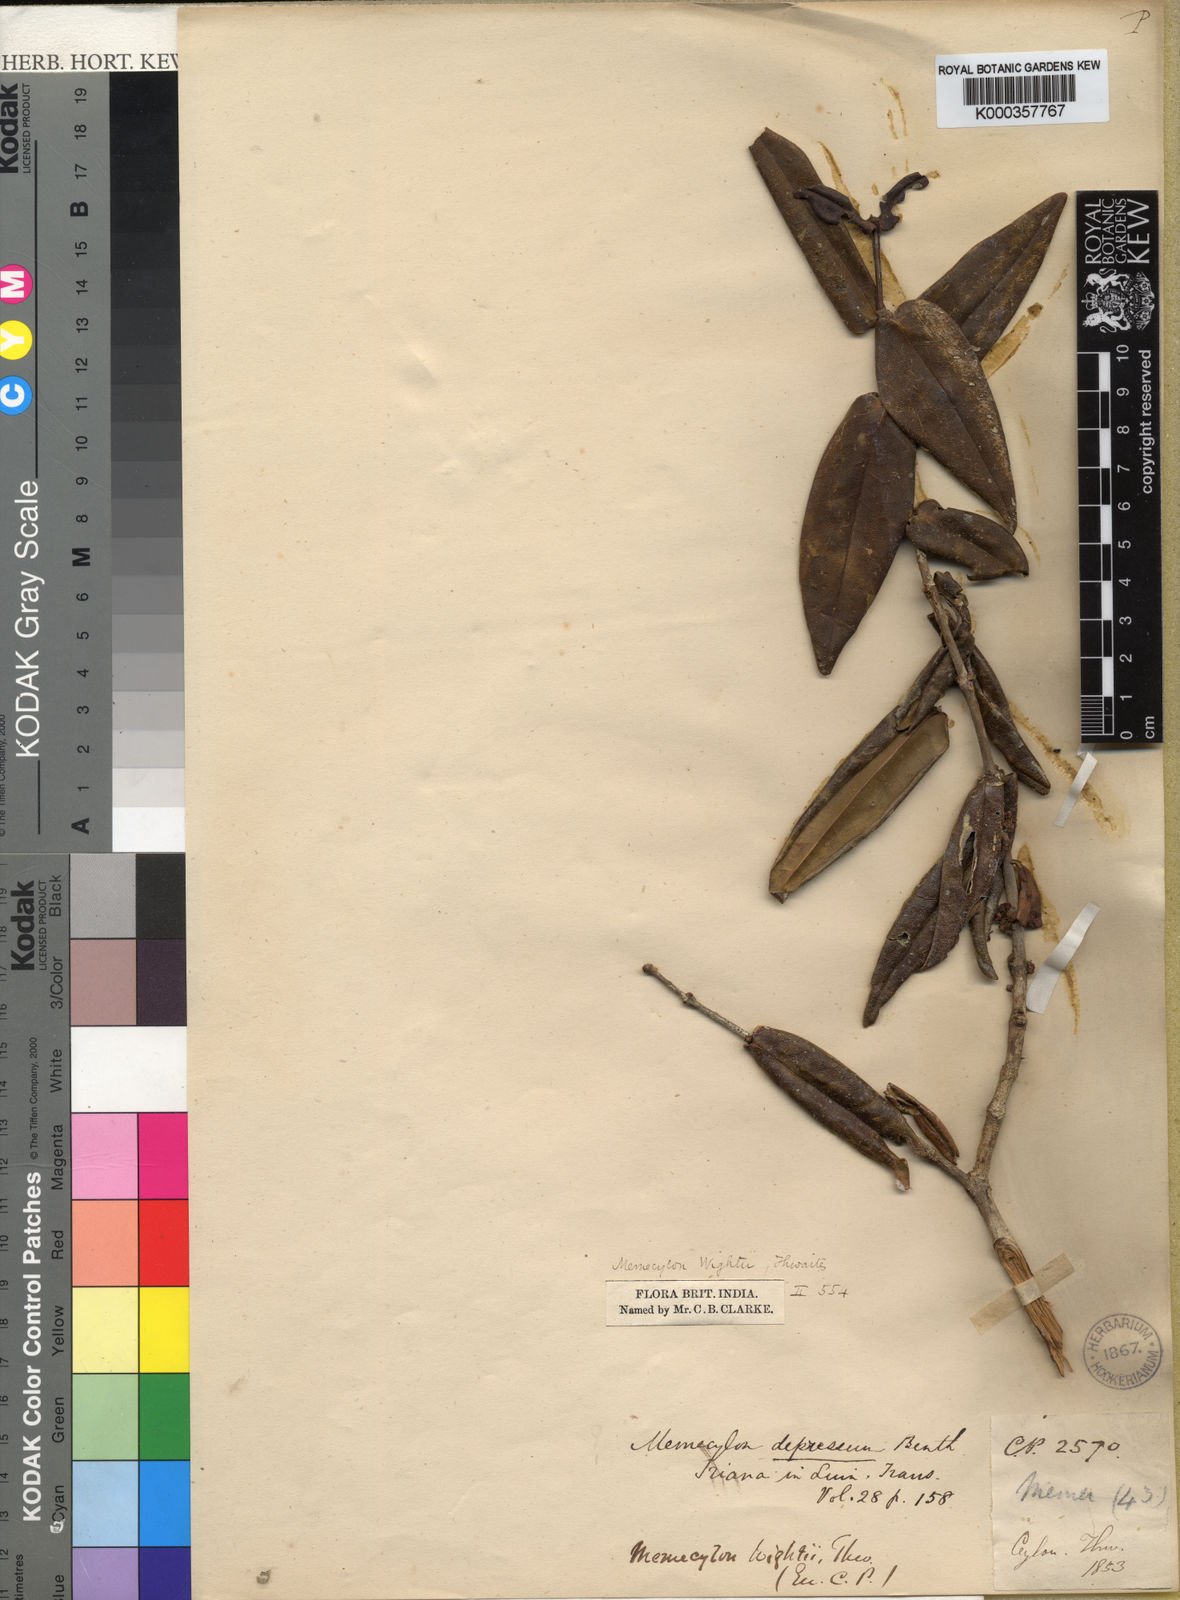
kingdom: Plantae
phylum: Tracheophyta
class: Magnoliopsida
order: Myrtales
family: Melastomataceae
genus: Memecylon
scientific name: Memecylon wightii
